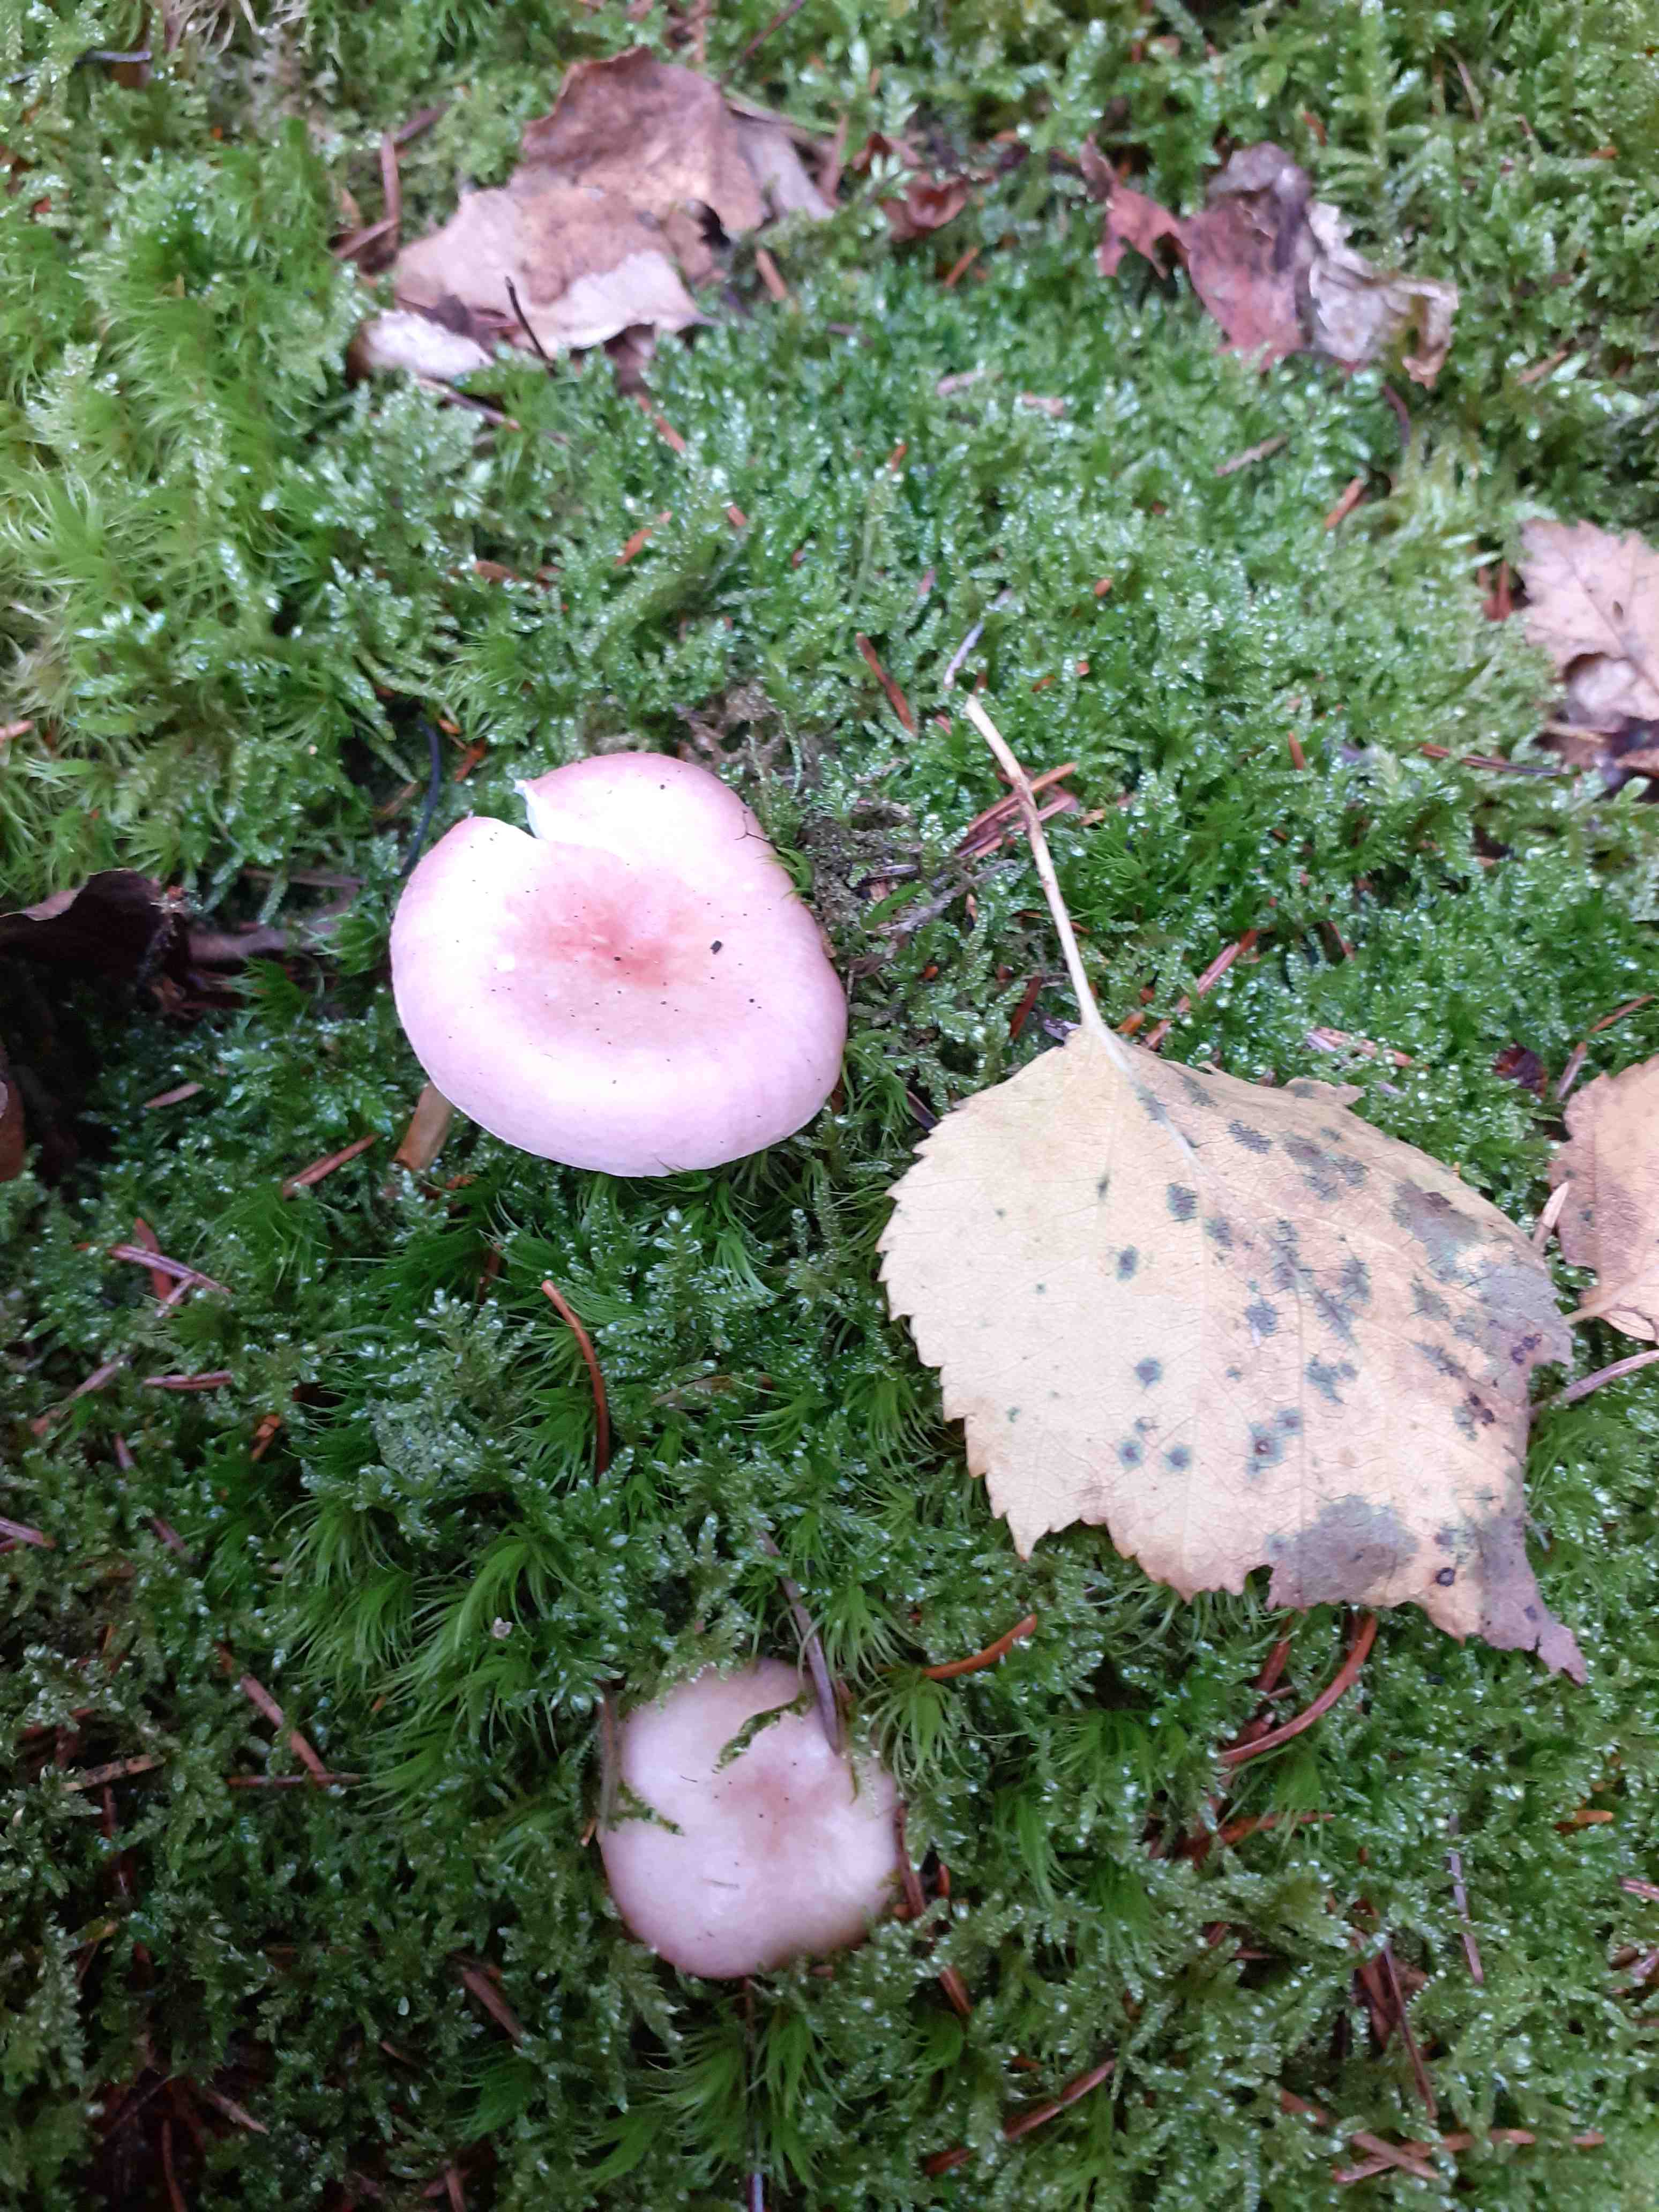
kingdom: Fungi
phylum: Basidiomycota
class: Agaricomycetes
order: Russulales
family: Russulaceae
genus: Russula
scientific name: Russula betularum
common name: bleg gift-skørhat
